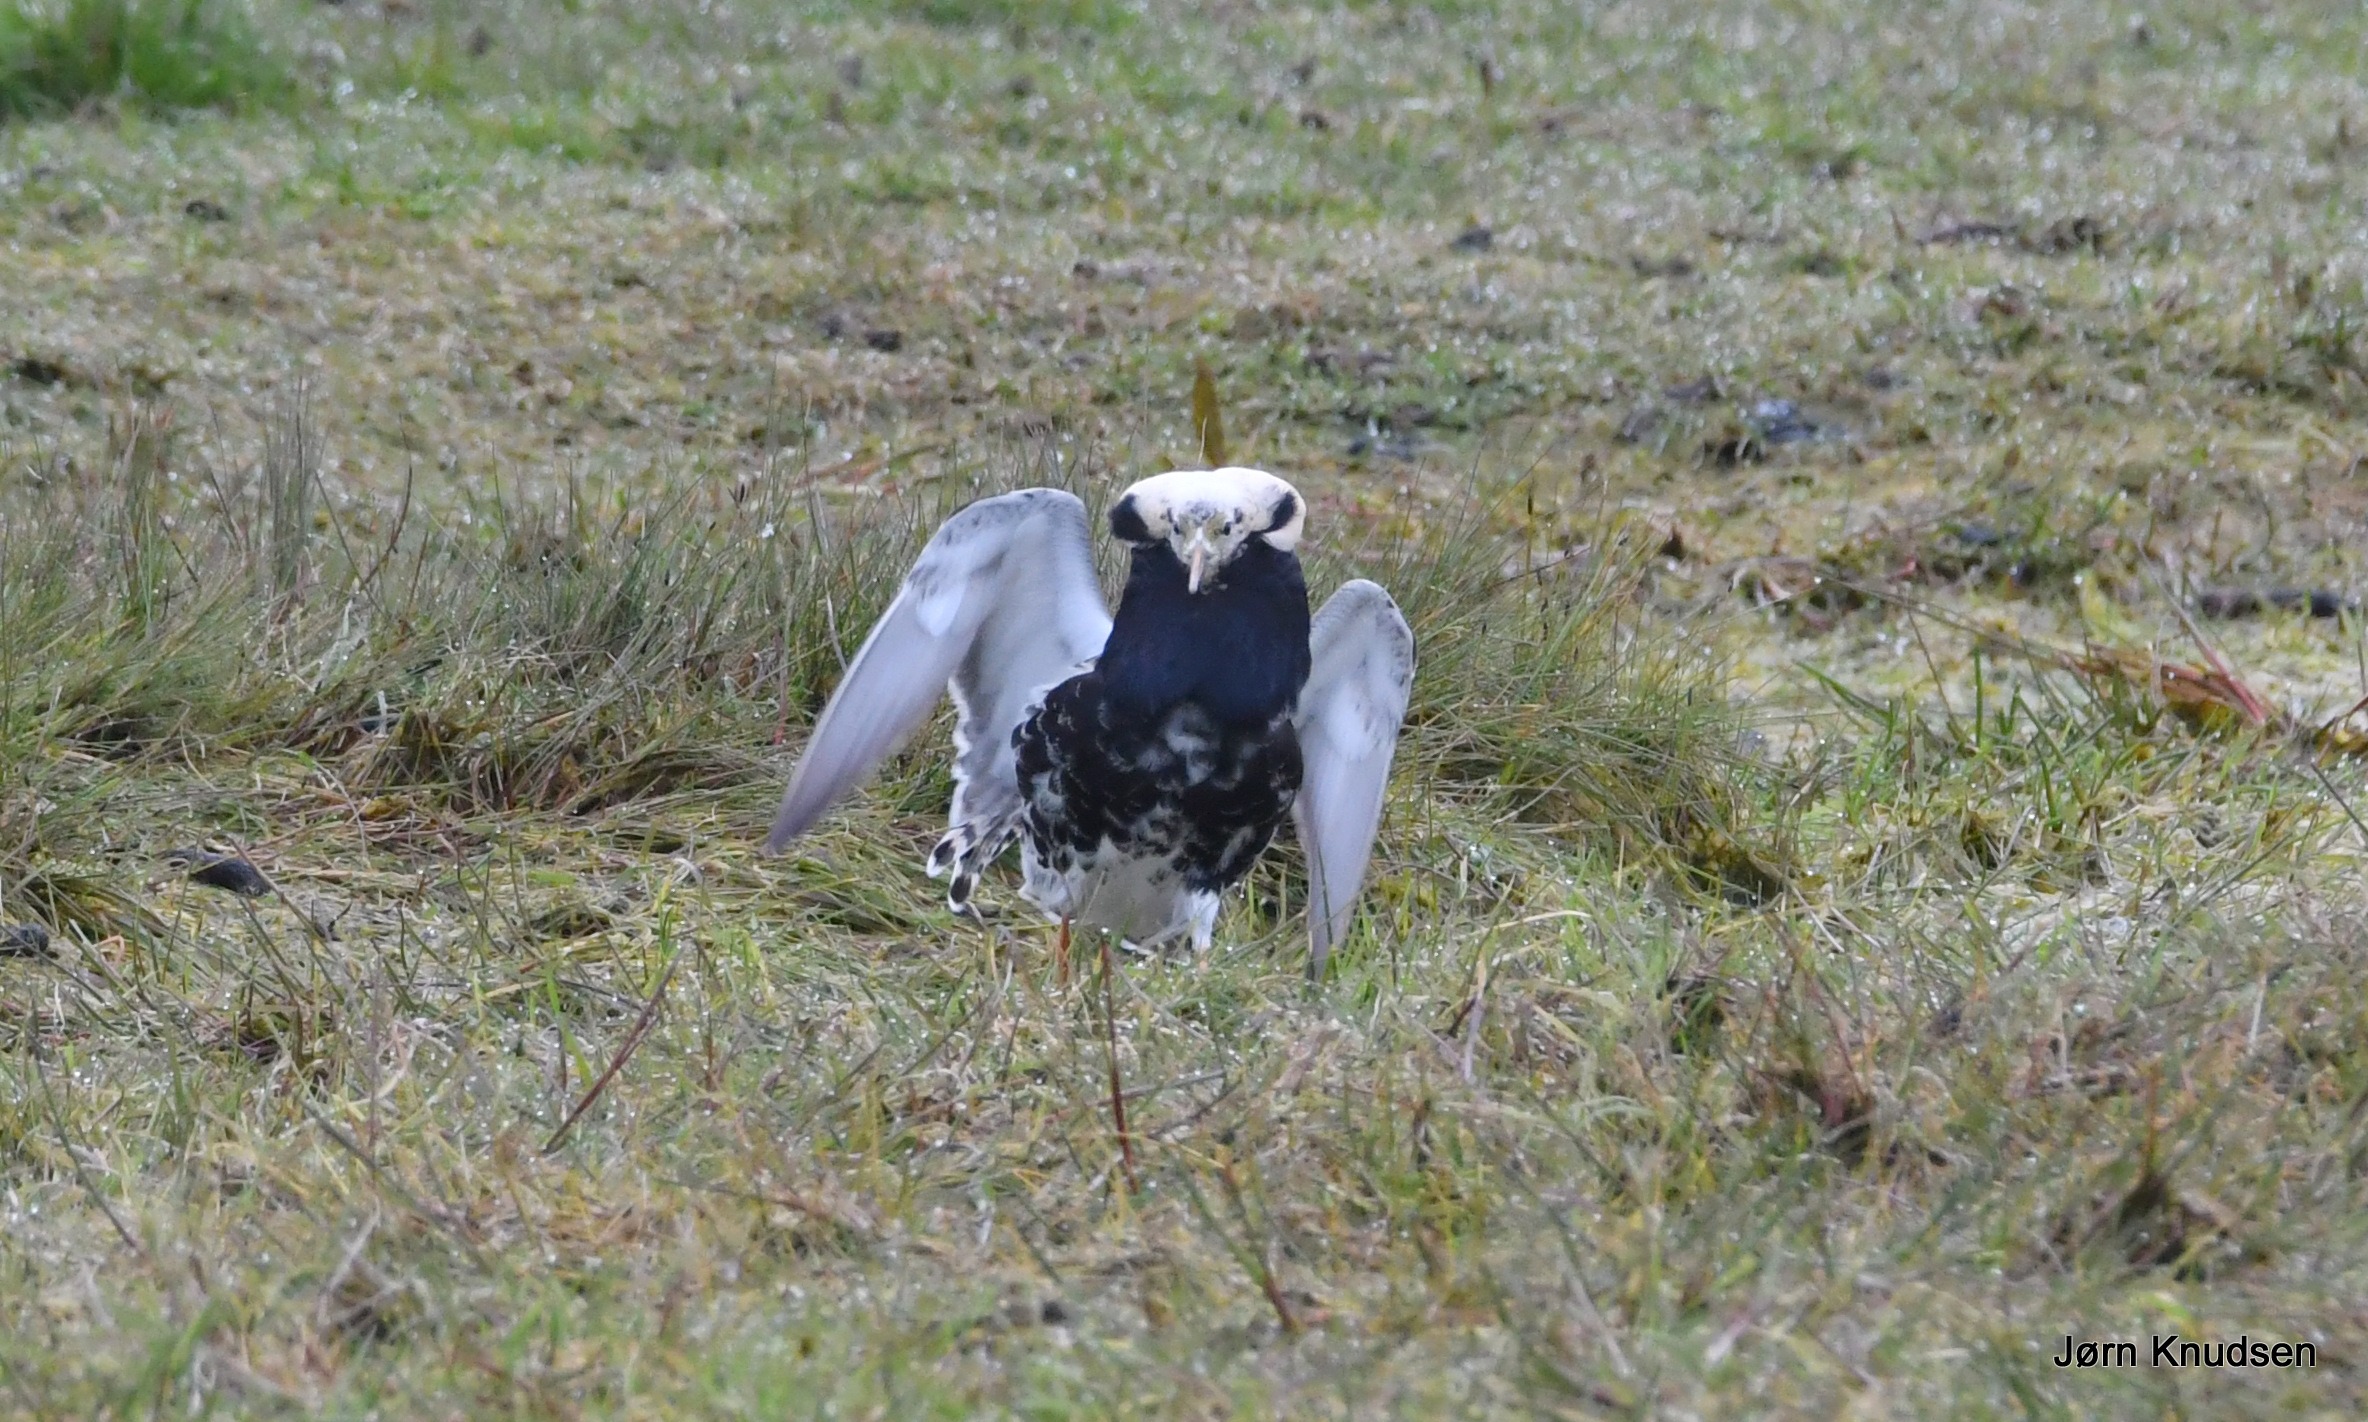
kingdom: Animalia
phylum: Chordata
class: Aves
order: Charadriiformes
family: Scolopacidae
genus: Calidris
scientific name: Calidris pugnax
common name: Brushane
